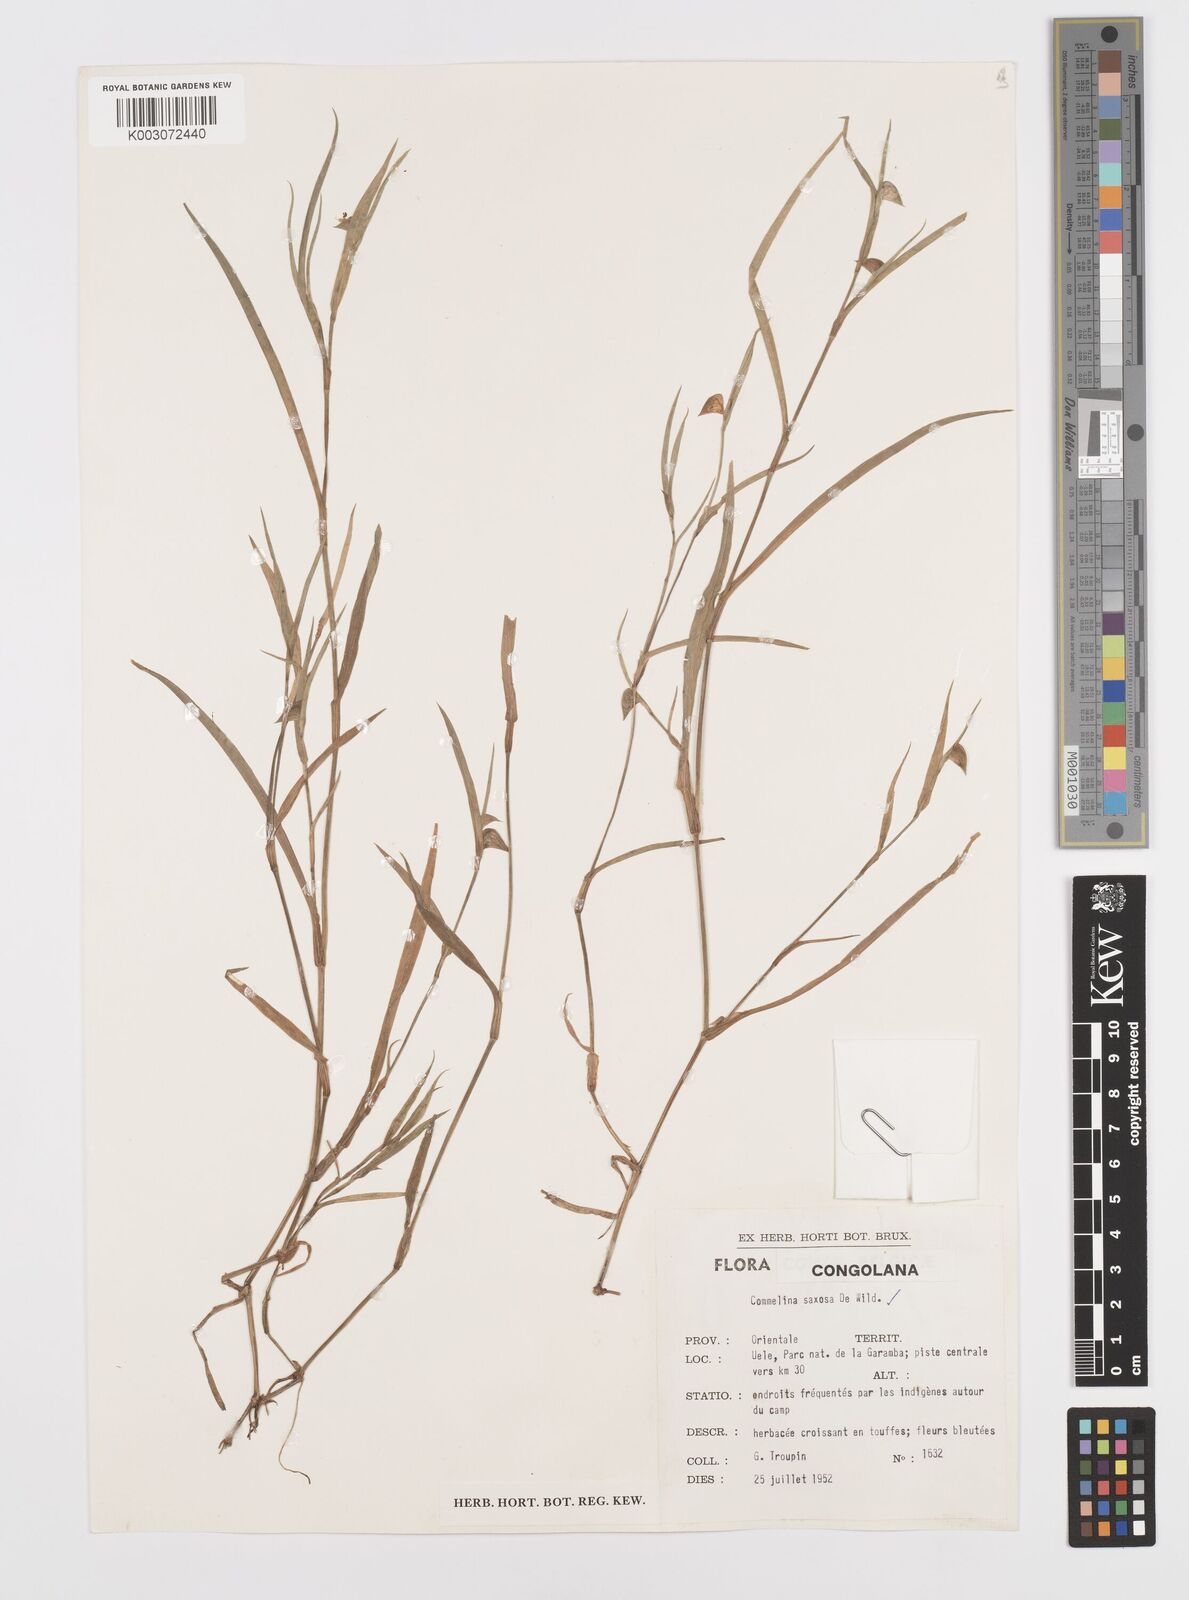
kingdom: Plantae
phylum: Tracheophyta
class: Liliopsida
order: Commelinales
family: Commelinaceae
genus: Commelina
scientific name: Commelina saxosa
